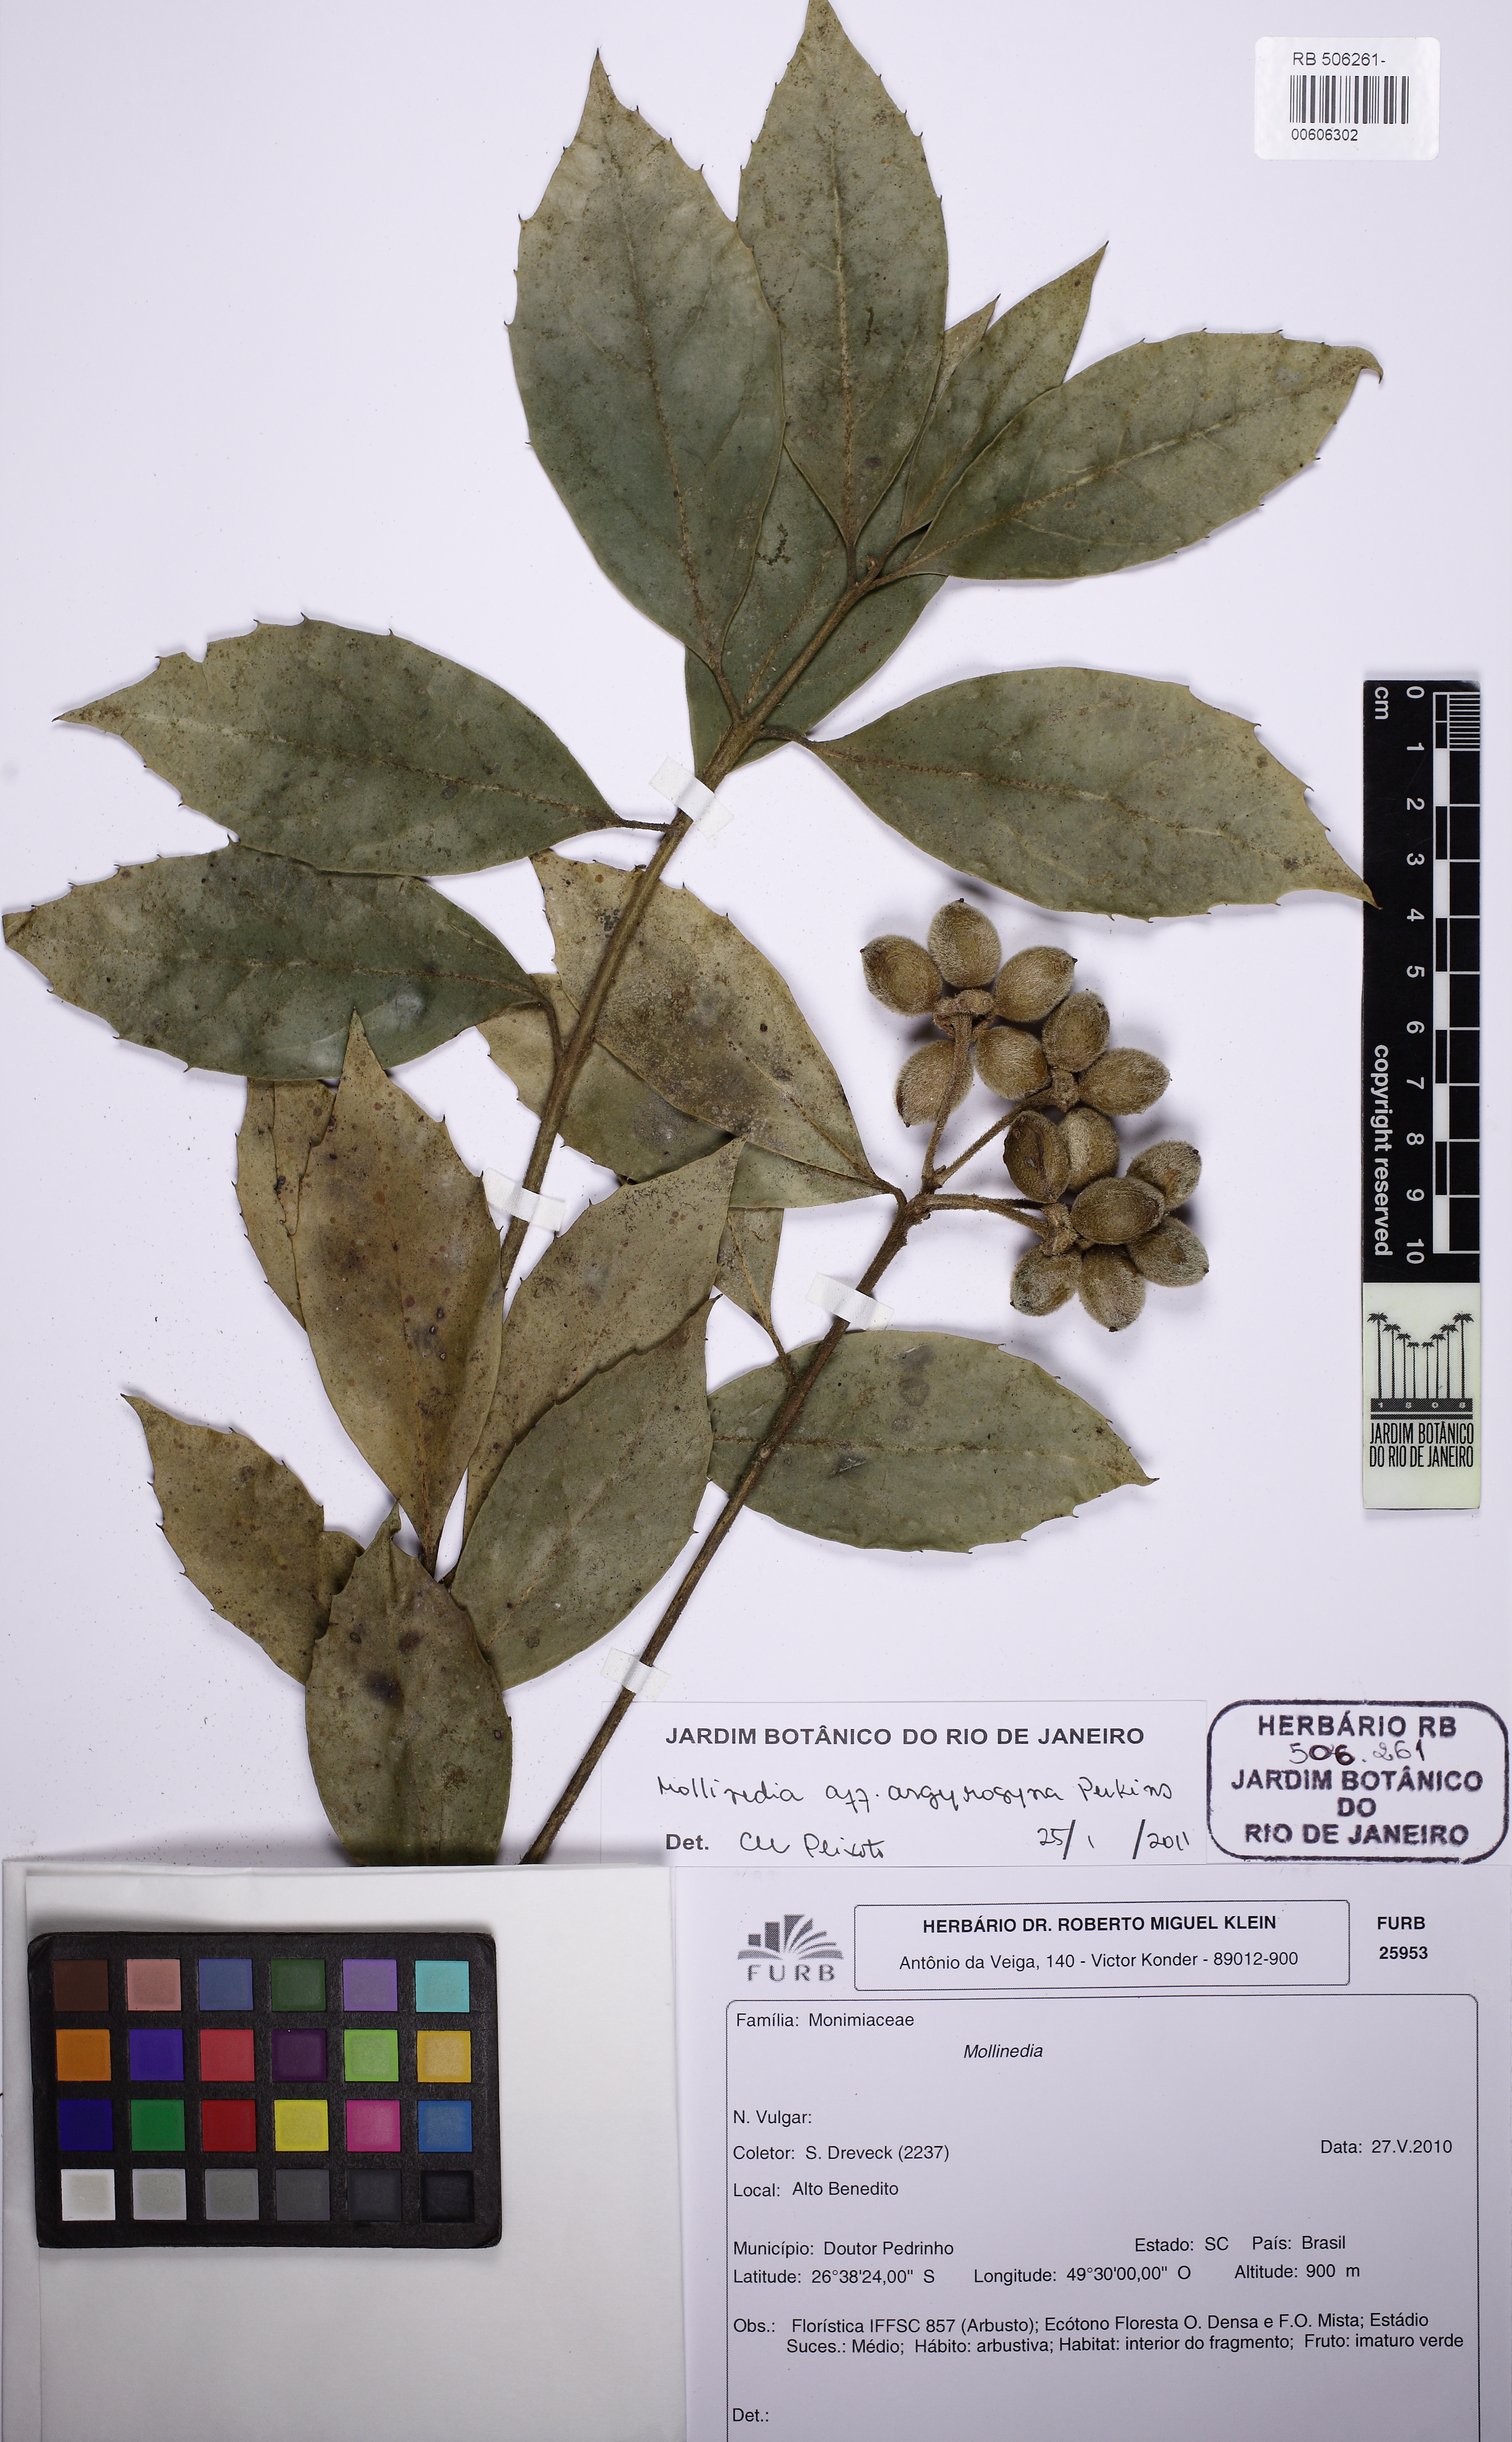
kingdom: Plantae
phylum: Tracheophyta
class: Magnoliopsida
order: Laurales
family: Monimiaceae
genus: Mollinedia
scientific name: Mollinedia uleana
